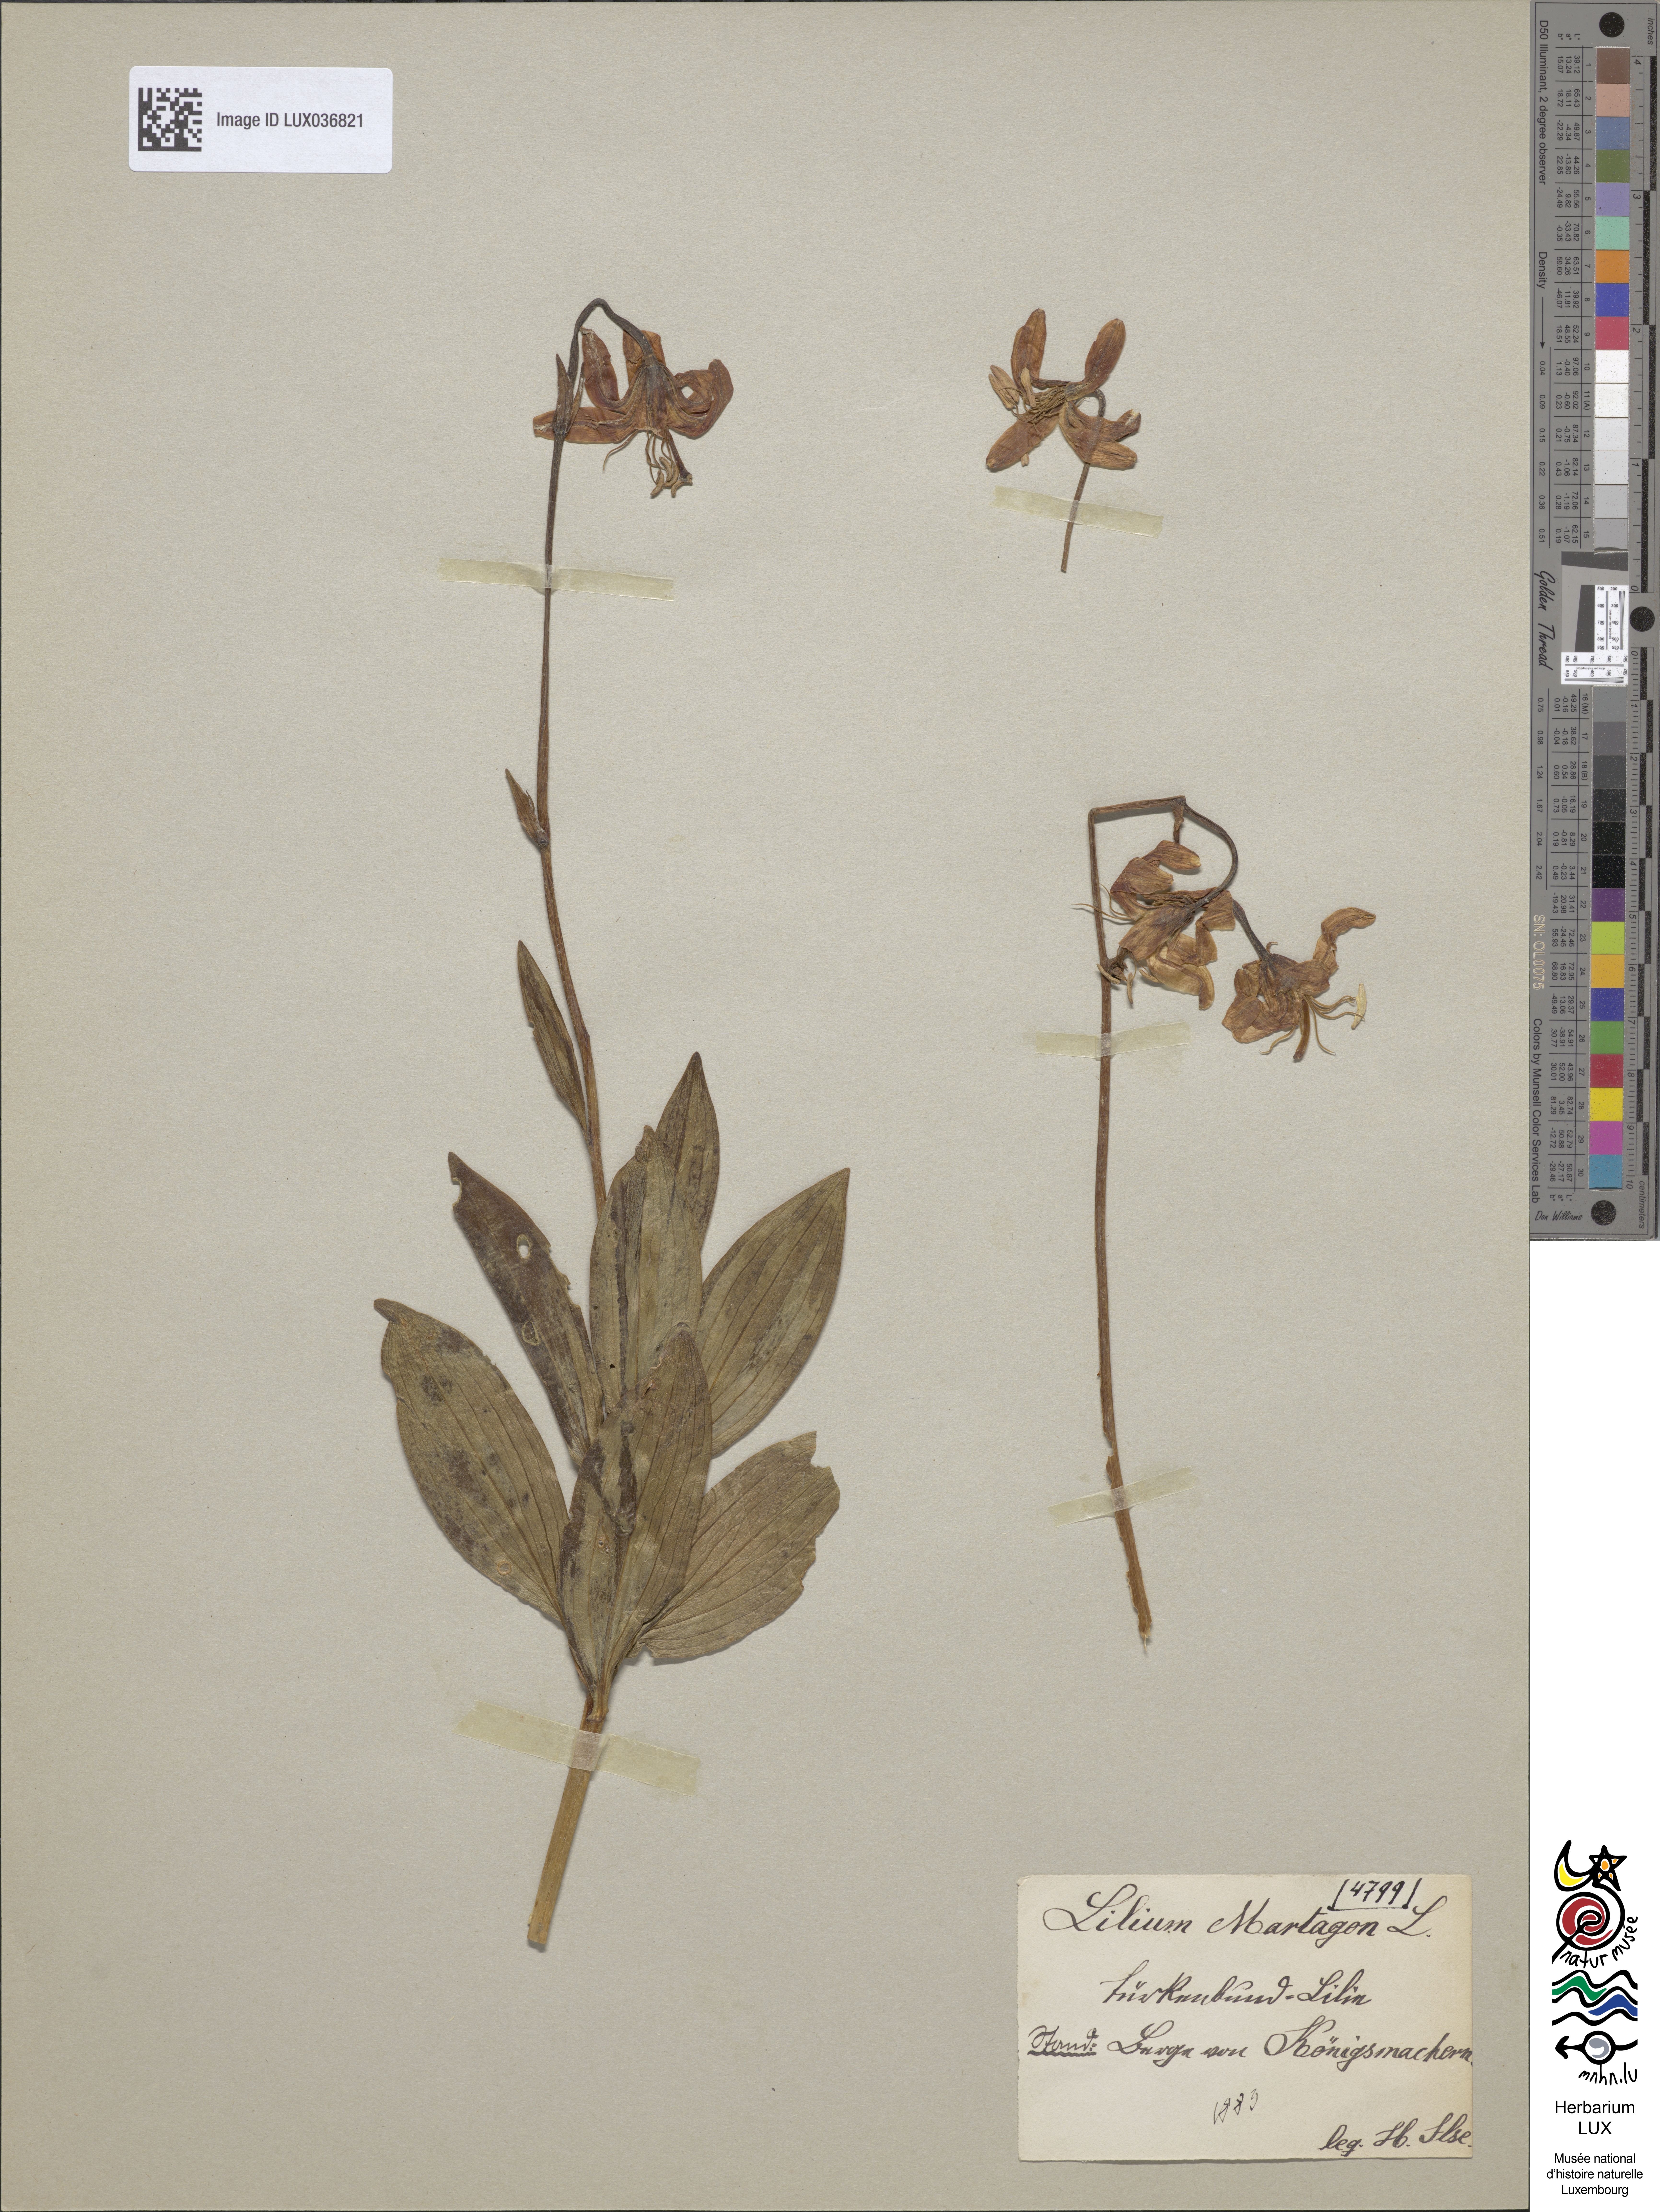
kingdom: Plantae
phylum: Tracheophyta
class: Liliopsida
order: Liliales
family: Liliaceae
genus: Lilium
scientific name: Lilium martagon
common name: Martagon lily
